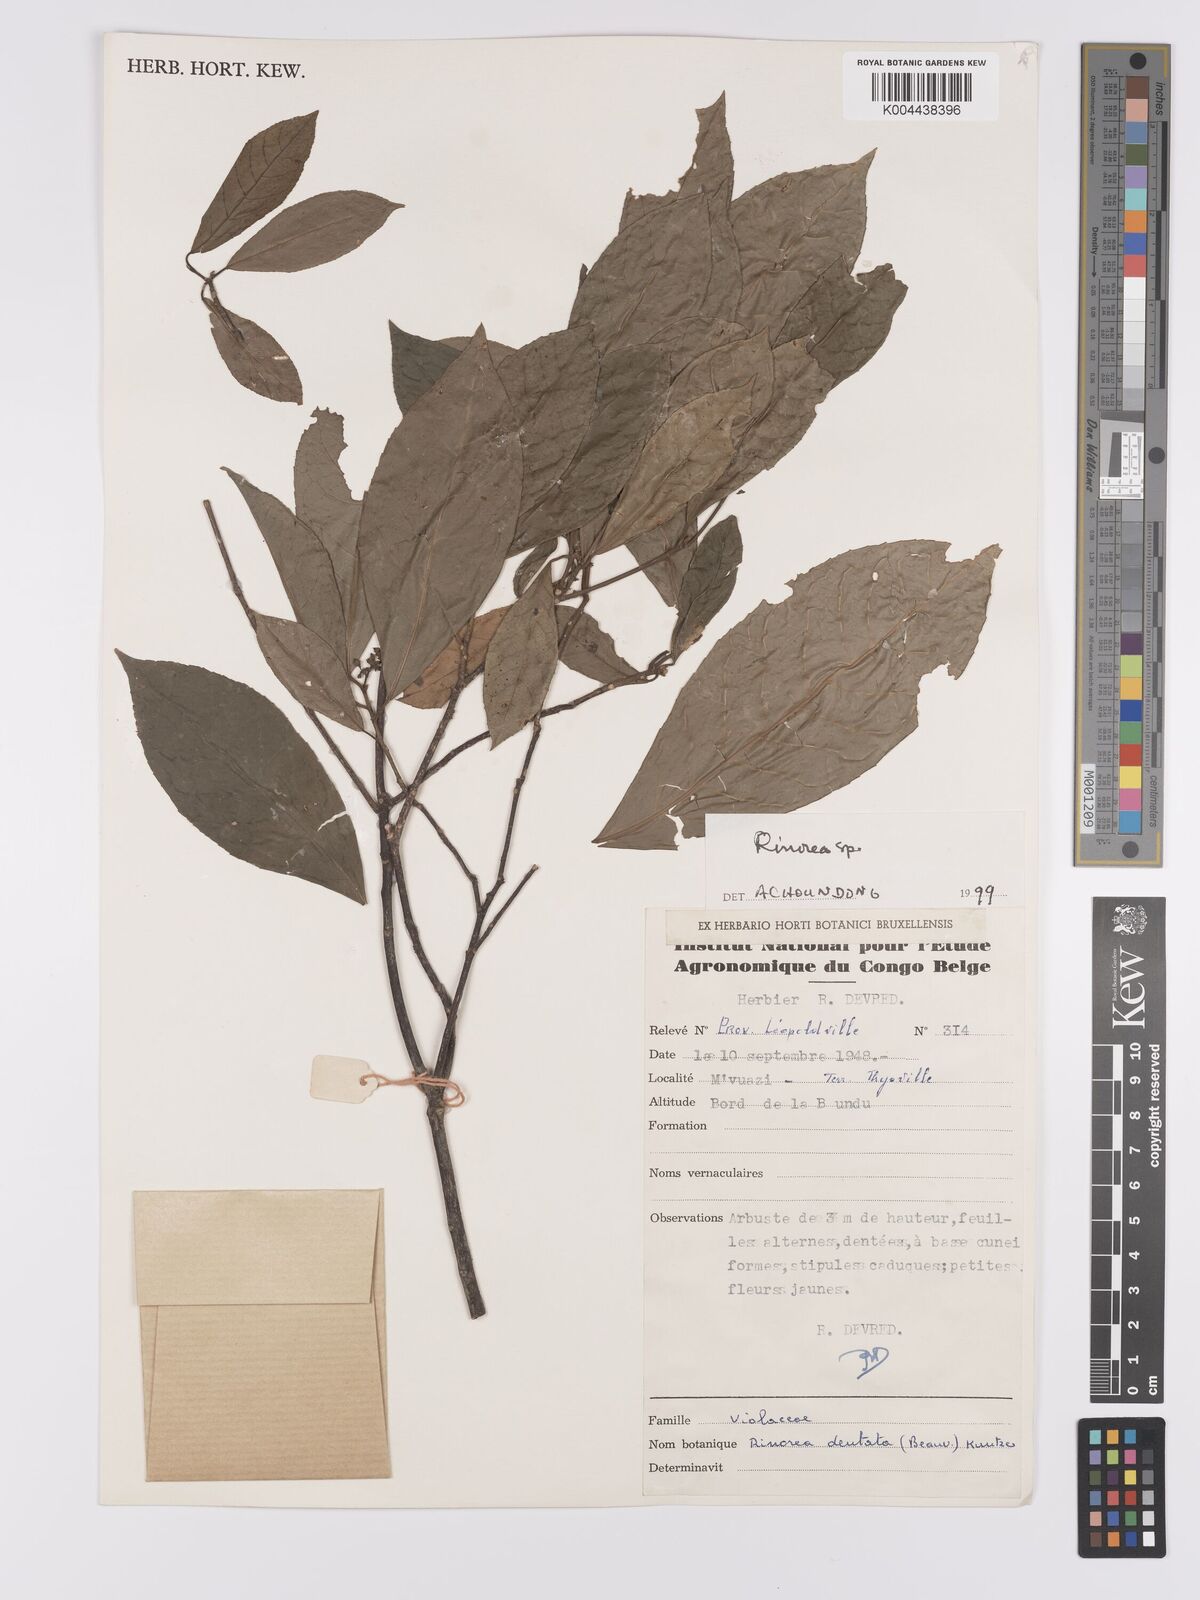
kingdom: Plantae
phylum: Tracheophyta
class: Magnoliopsida
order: Malpighiales
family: Violaceae
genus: Rinorea
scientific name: Rinorea
